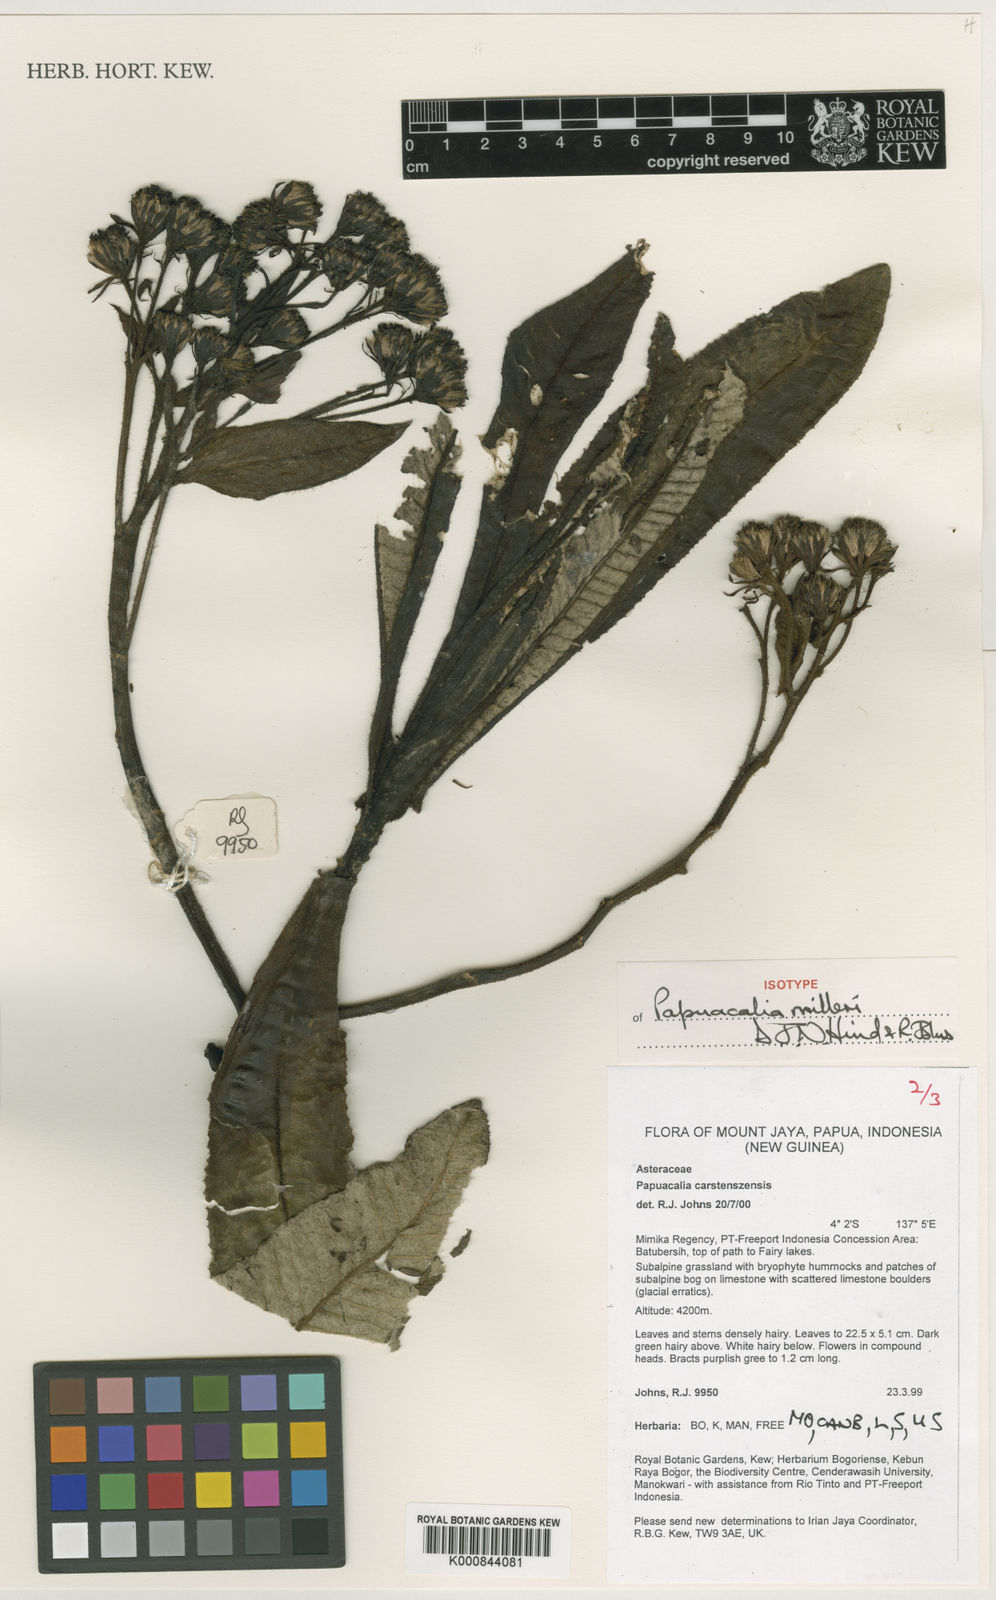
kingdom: Plantae
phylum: Tracheophyta
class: Magnoliopsida
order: Asterales
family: Asteraceae
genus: Papuacalia
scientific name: Papuacalia milleri
